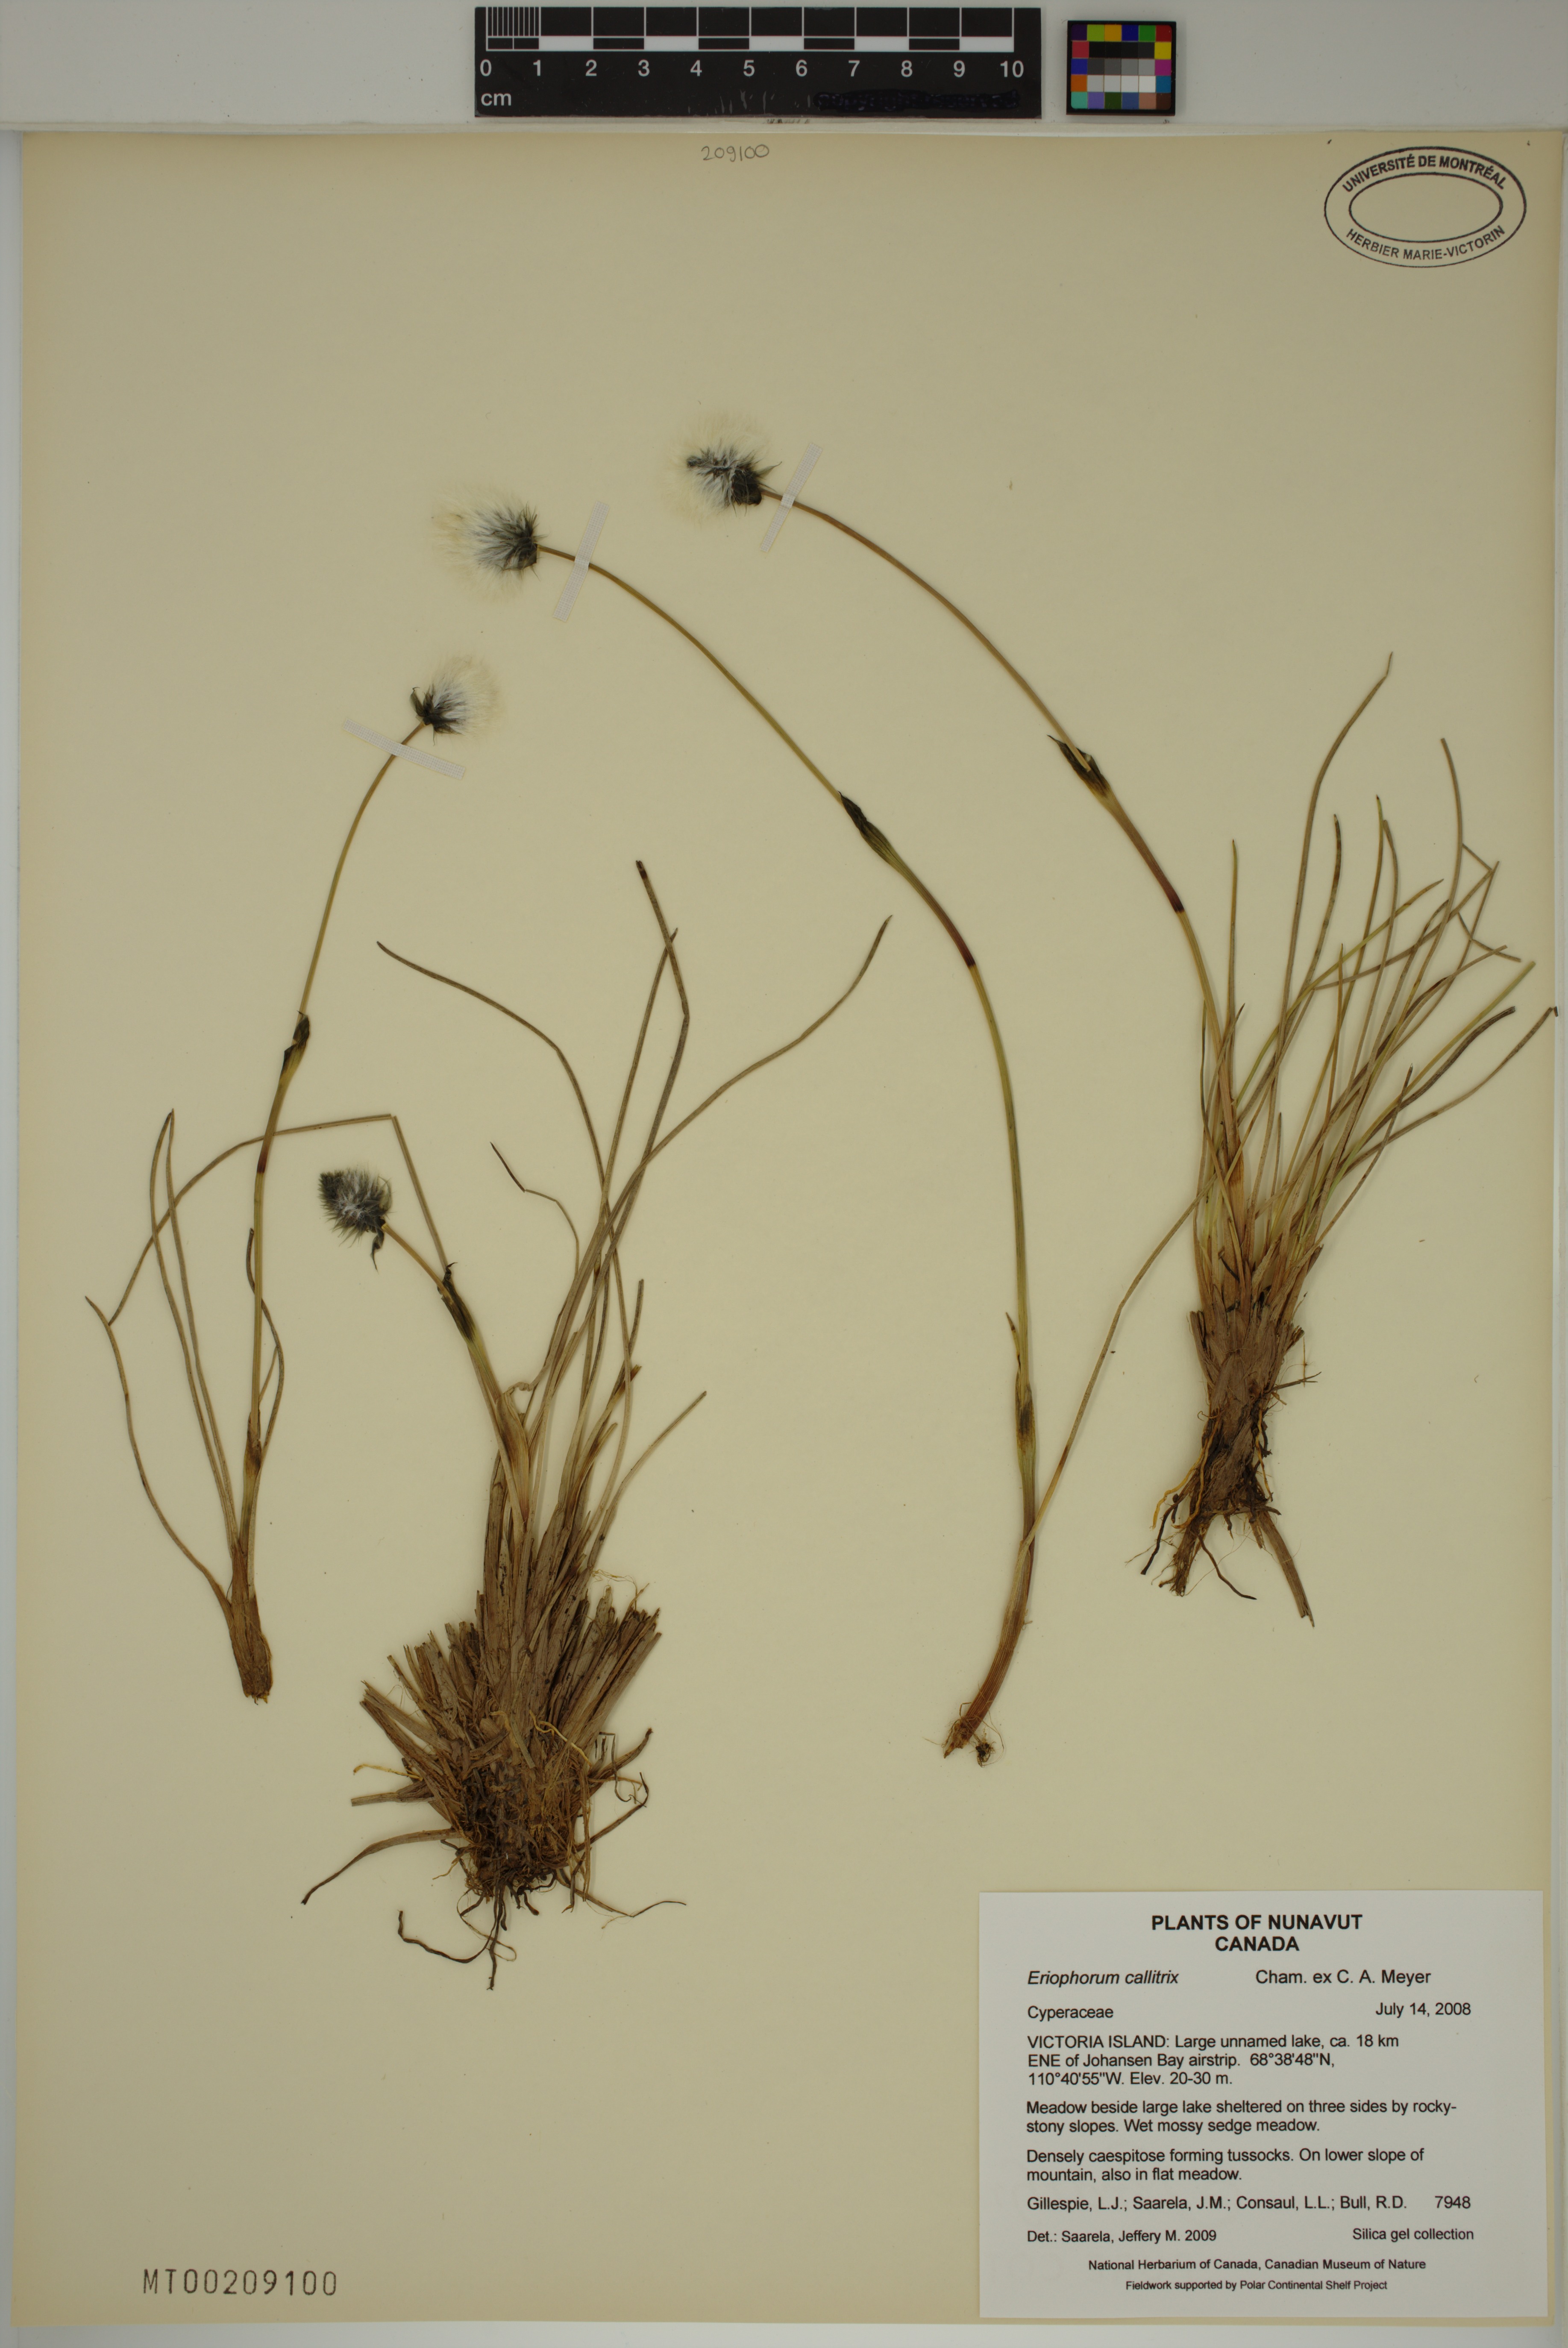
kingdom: Plantae
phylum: Tracheophyta
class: Liliopsida
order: Poales
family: Cyperaceae
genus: Eriophorum
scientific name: Eriophorum callitrix
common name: Arctic cottongrass
